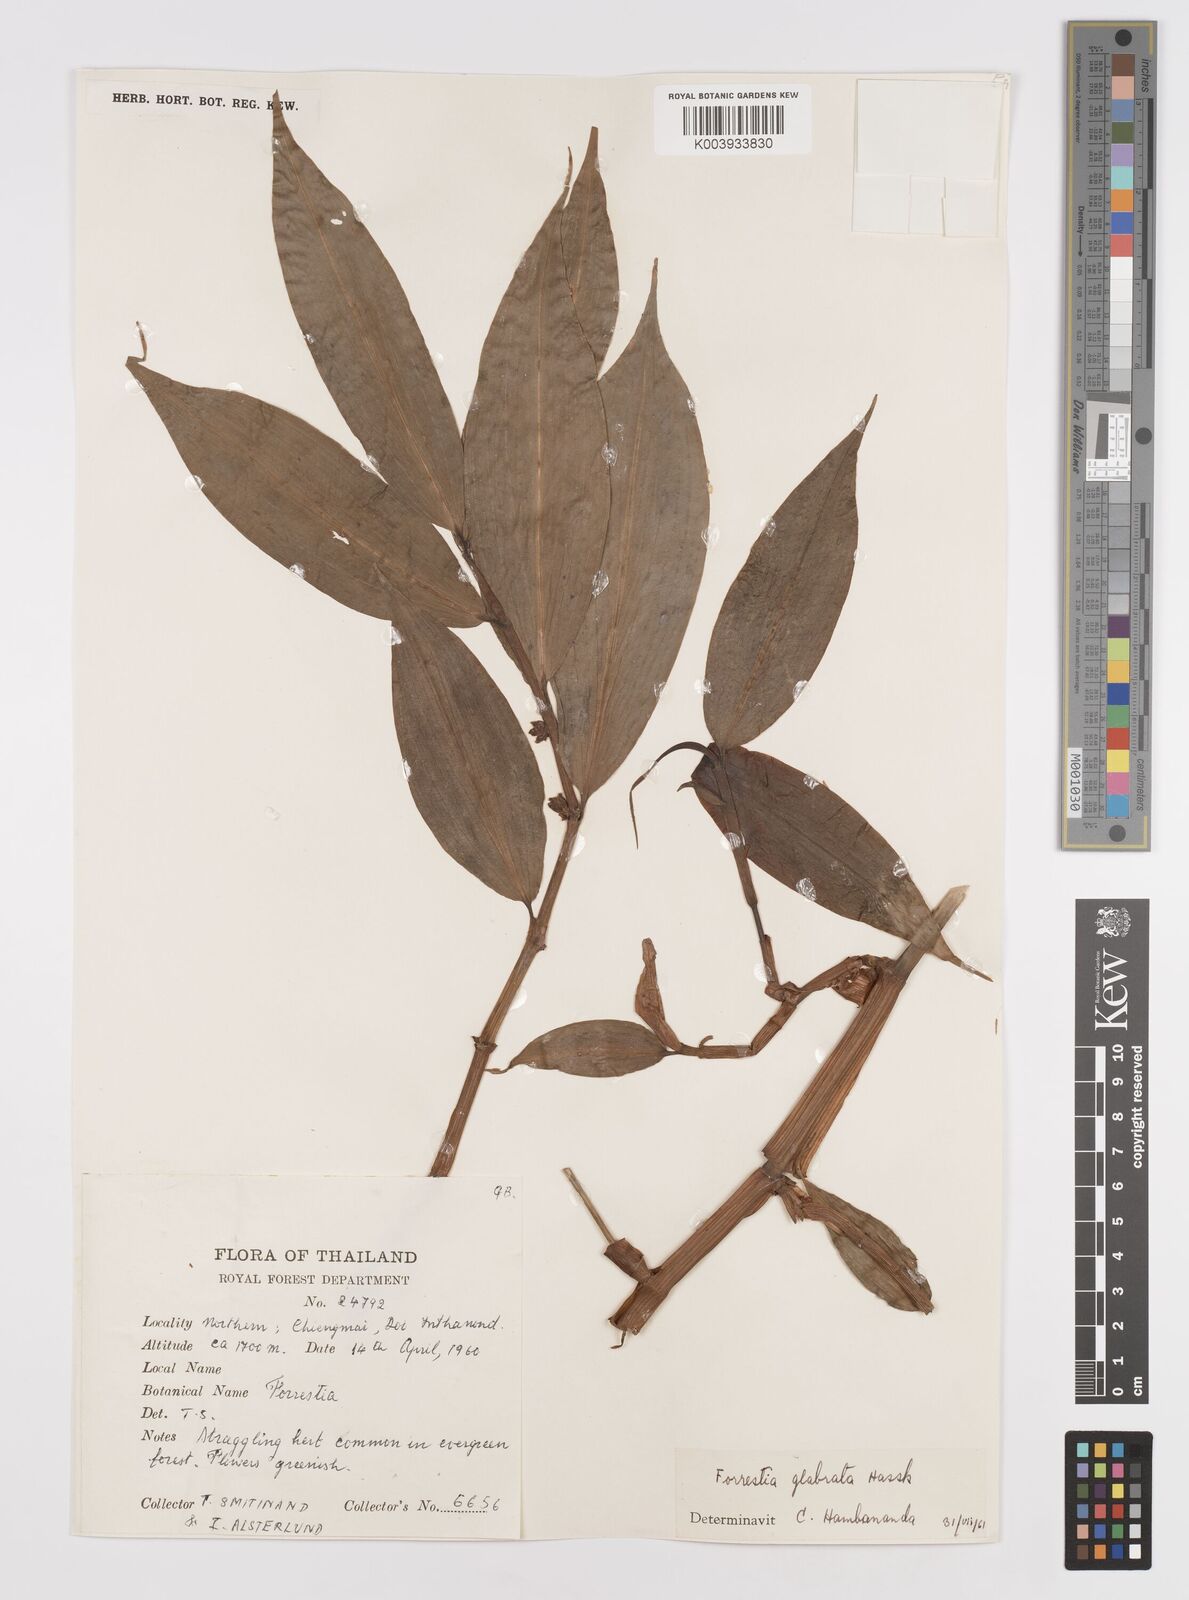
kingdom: Plantae
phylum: Tracheophyta
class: Liliopsida
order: Commelinales
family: Commelinaceae
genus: Amischotolype
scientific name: Amischotolype glabrata
